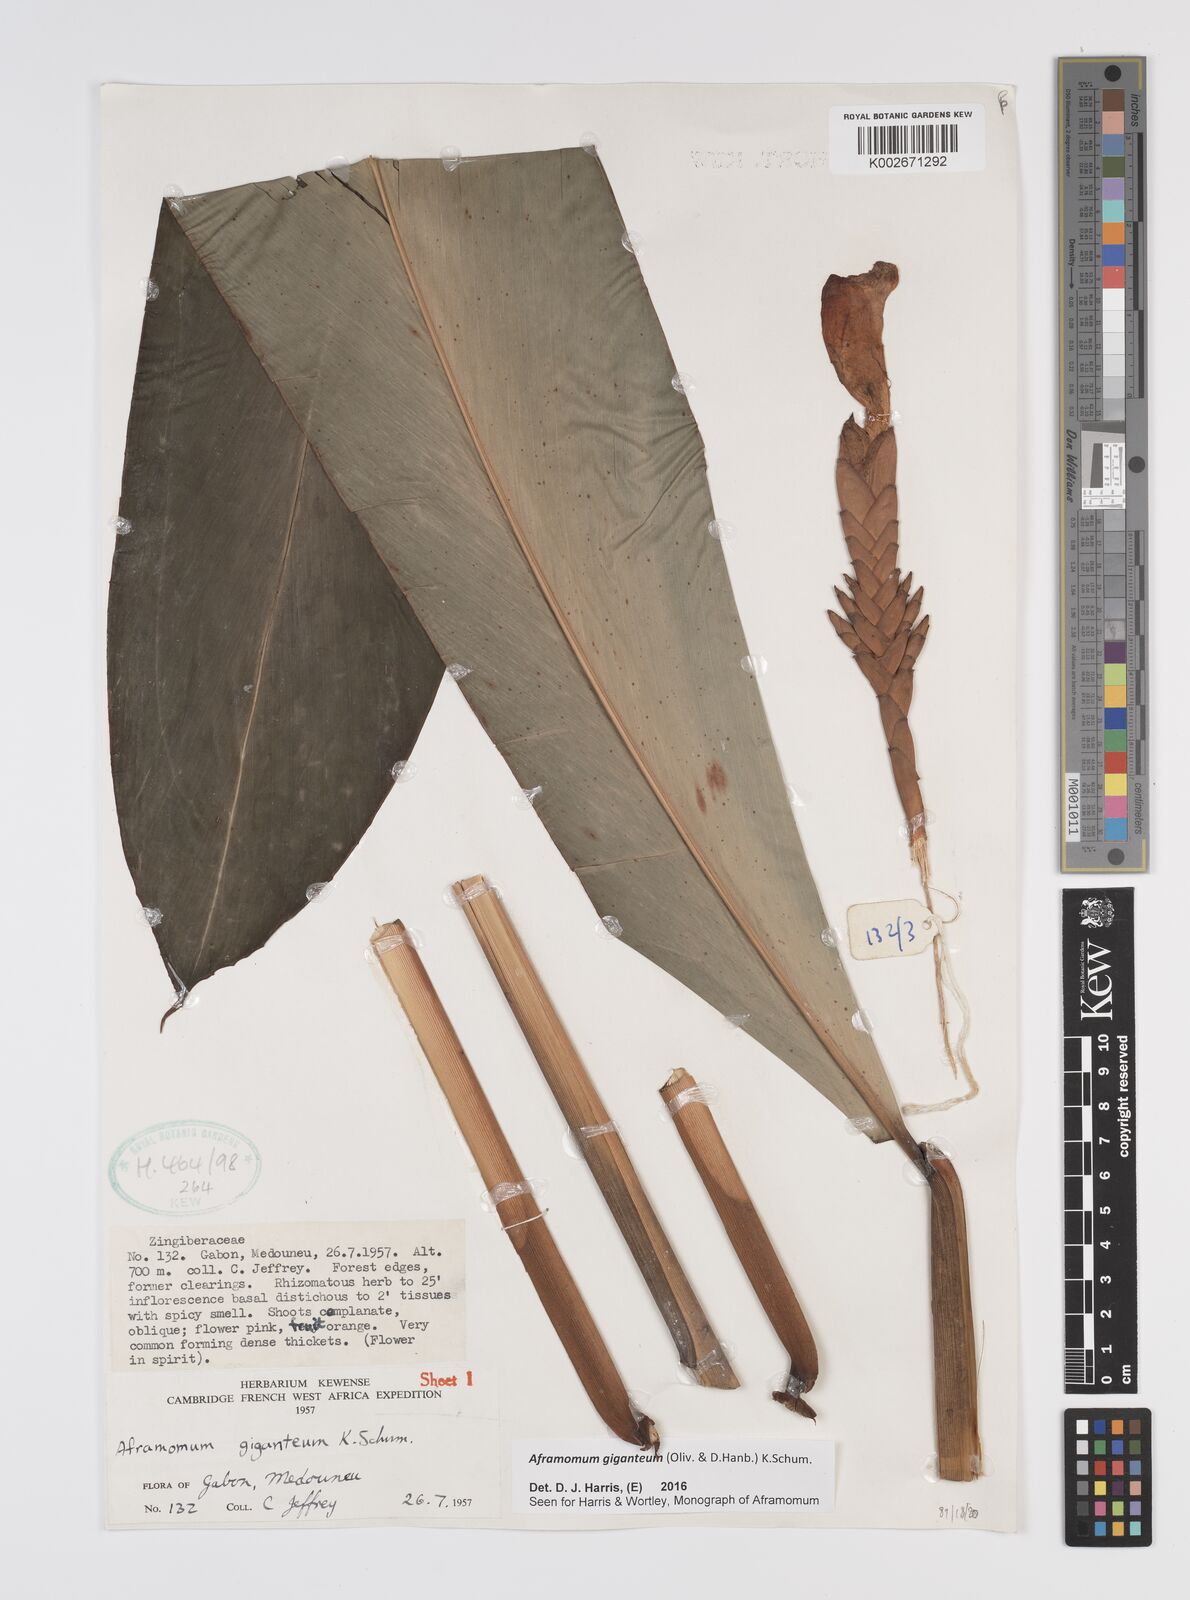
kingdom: Plantae
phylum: Tracheophyta
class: Liliopsida
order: Zingiberales
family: Zingiberaceae
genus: Aframomum
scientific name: Aframomum giganteum
